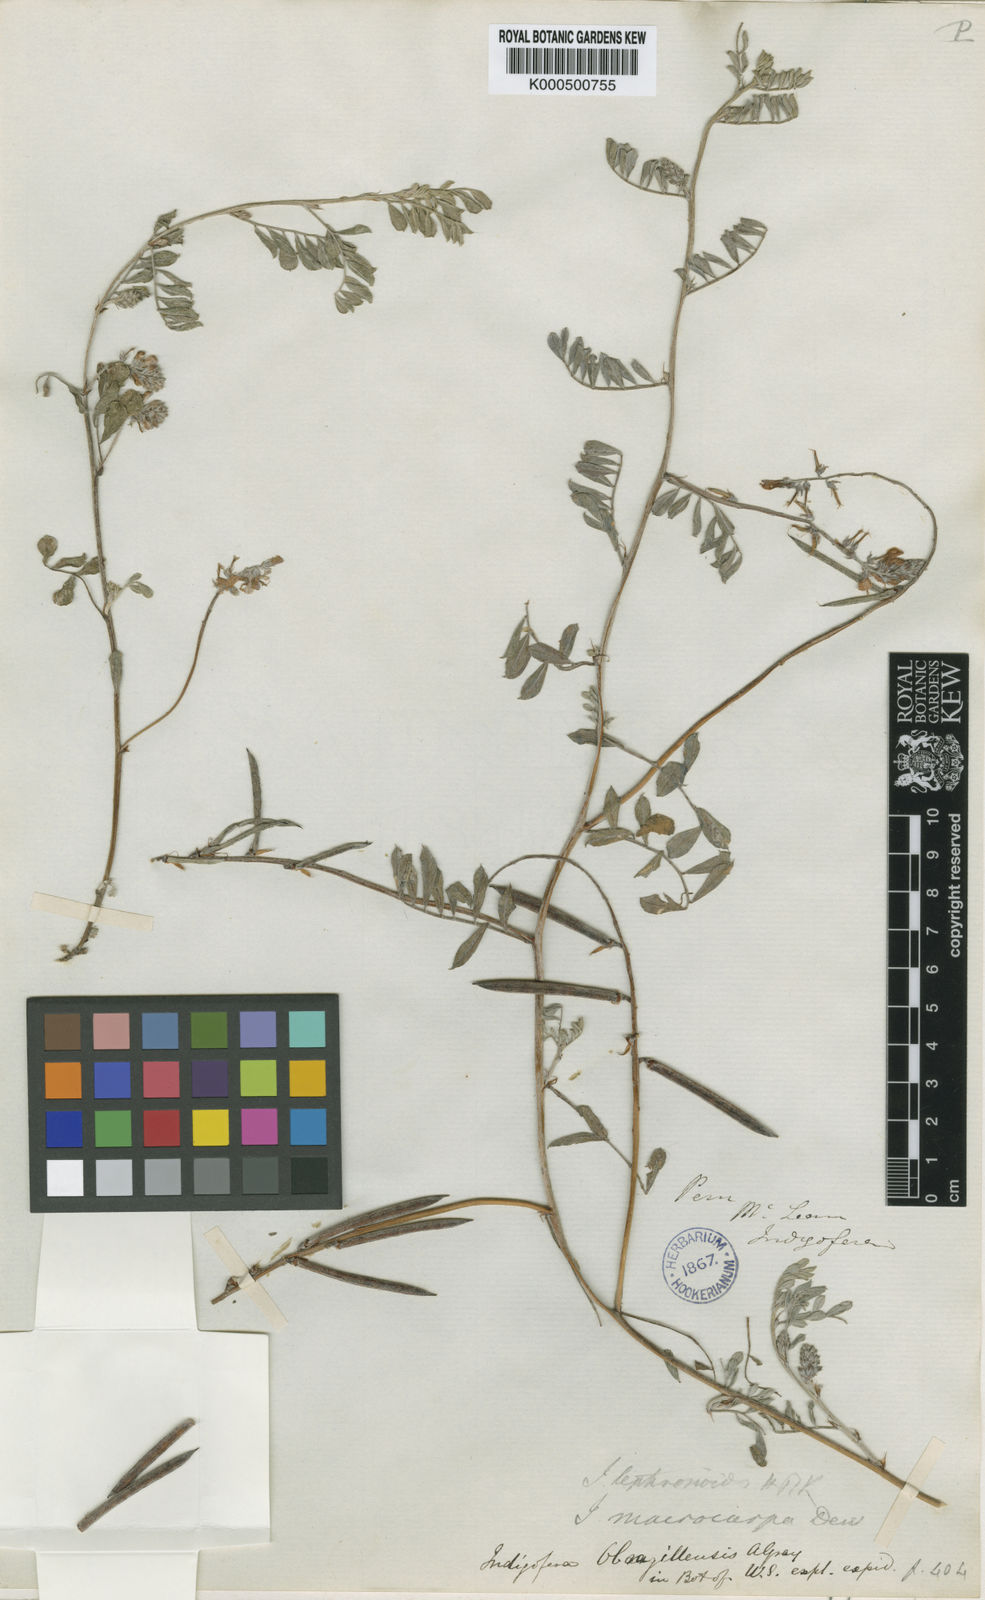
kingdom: Plantae
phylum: Tracheophyta
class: Magnoliopsida
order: Fabales
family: Fabaceae
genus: Indigofera
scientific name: Indigofera tephrosioides
